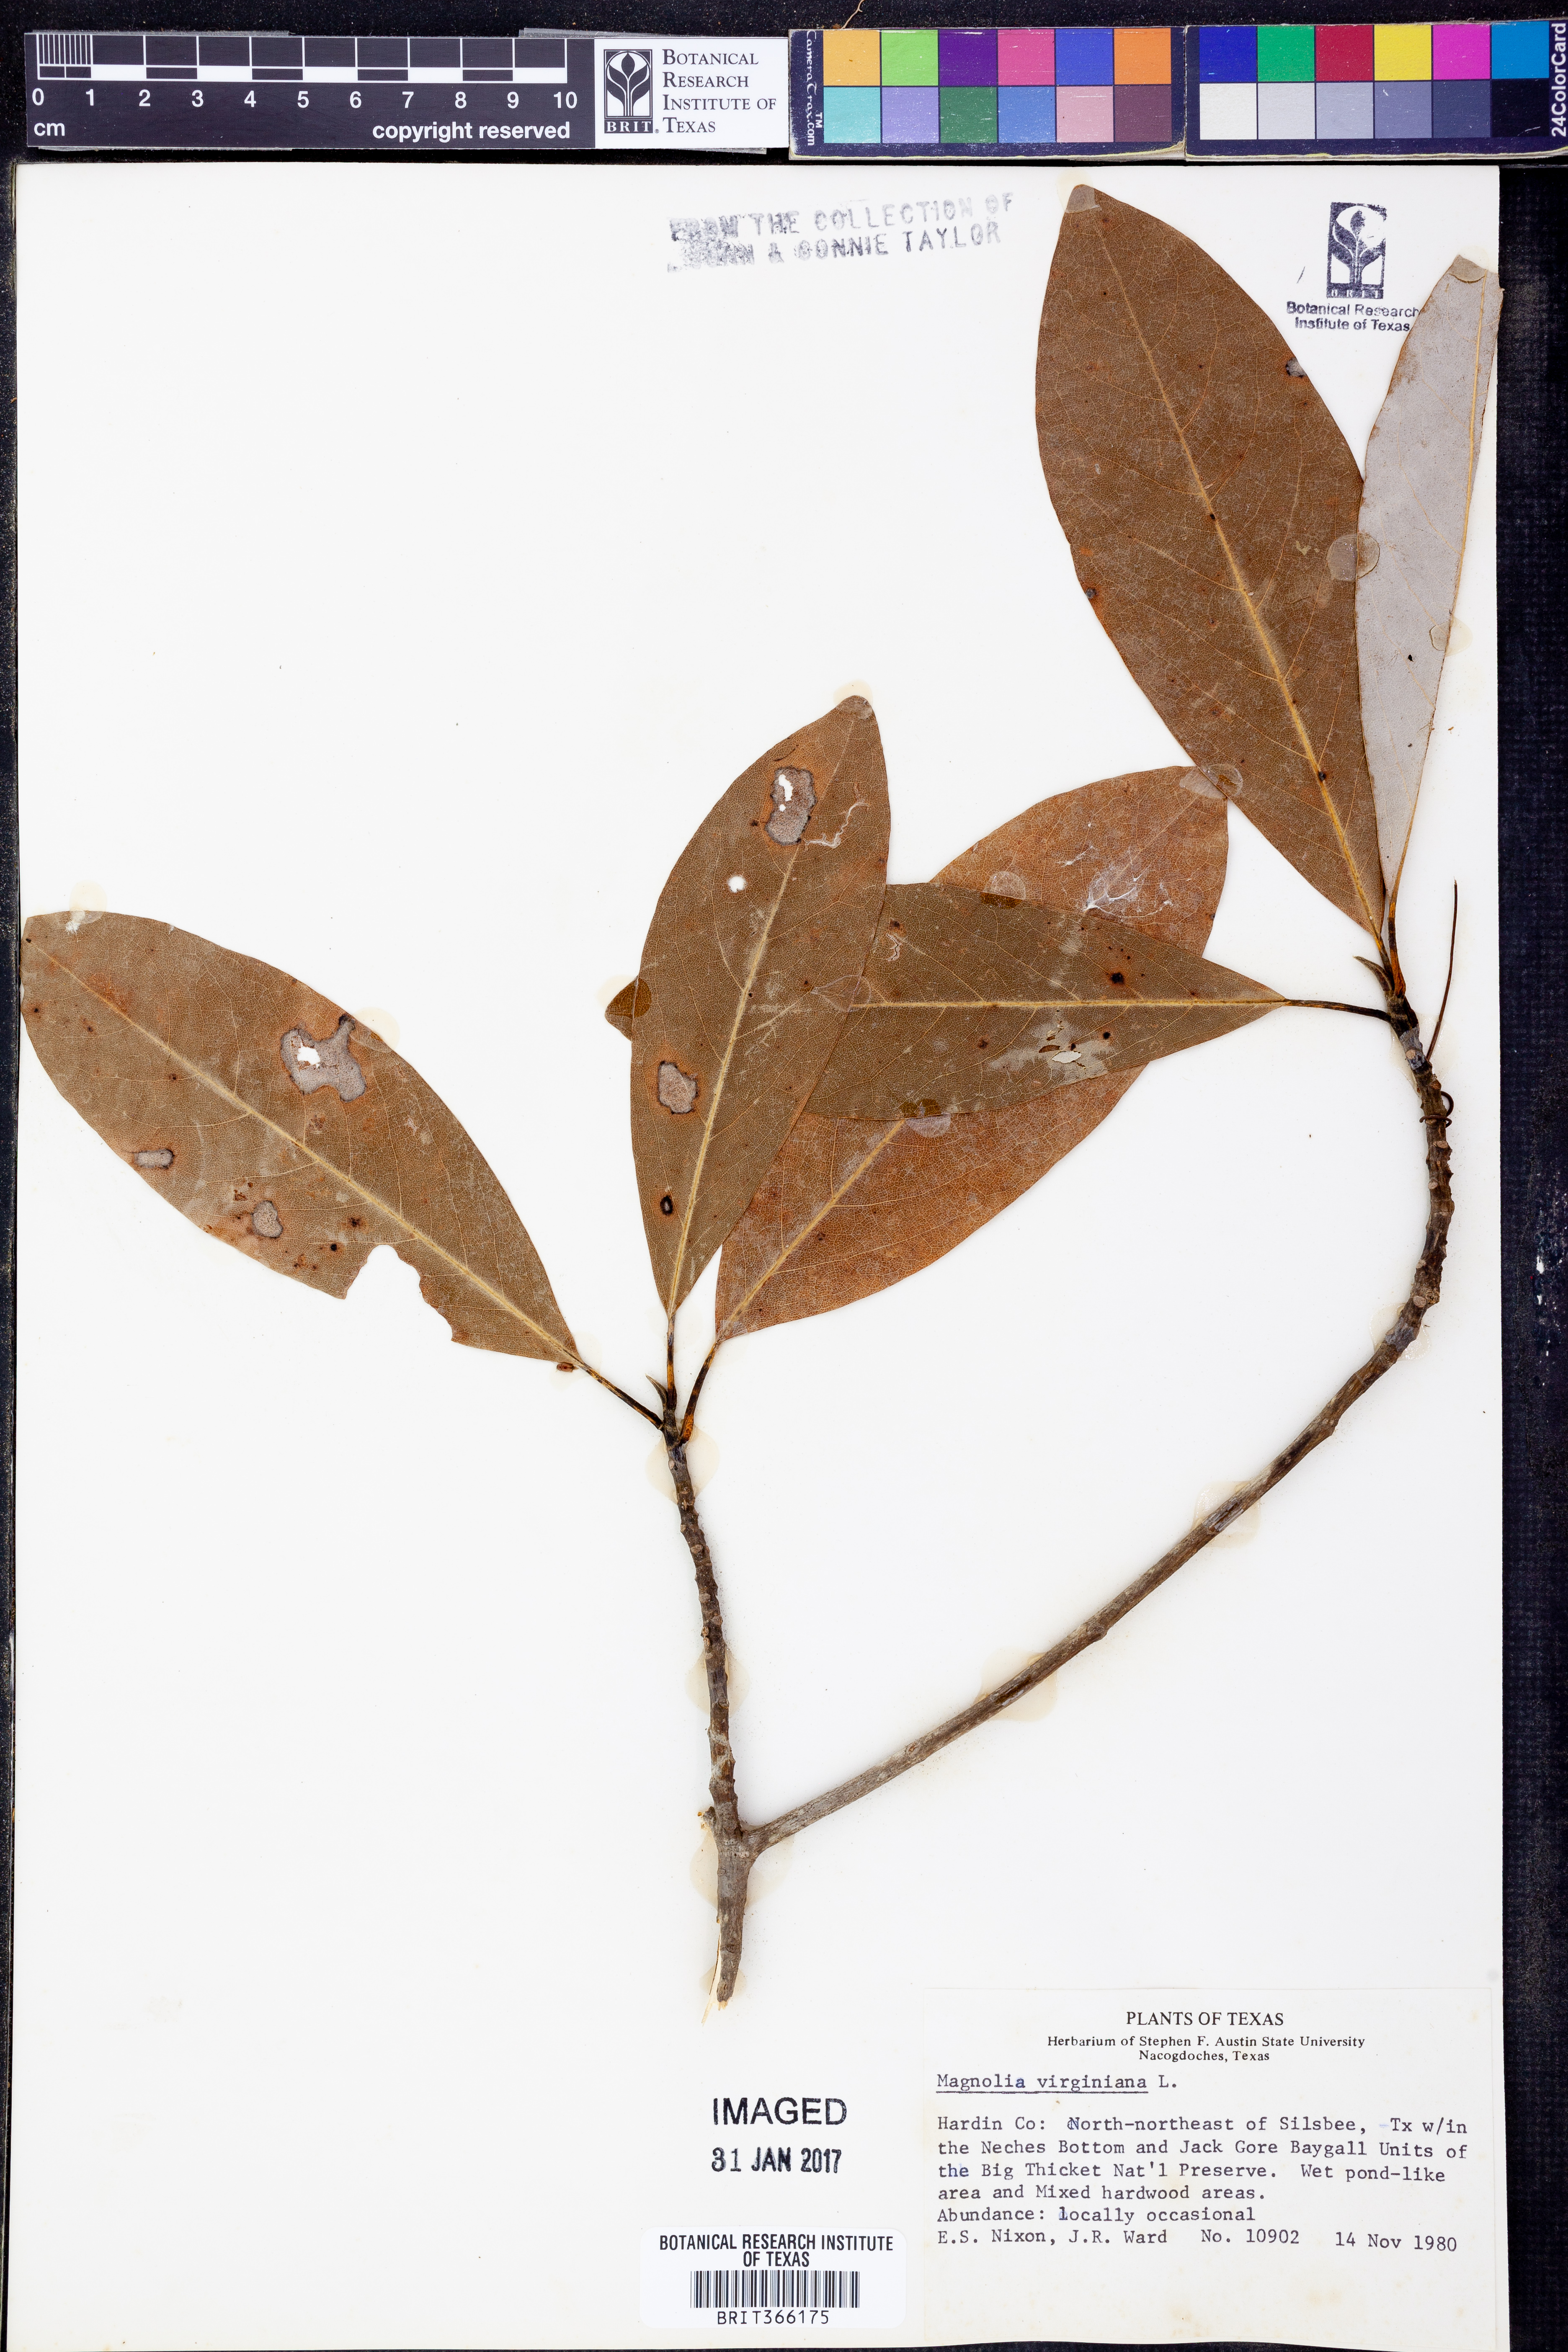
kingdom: Plantae
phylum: Tracheophyta
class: Magnoliopsida
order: Magnoliales
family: Magnoliaceae
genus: Magnolia
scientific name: Magnolia virginiana
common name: Swamp bay
